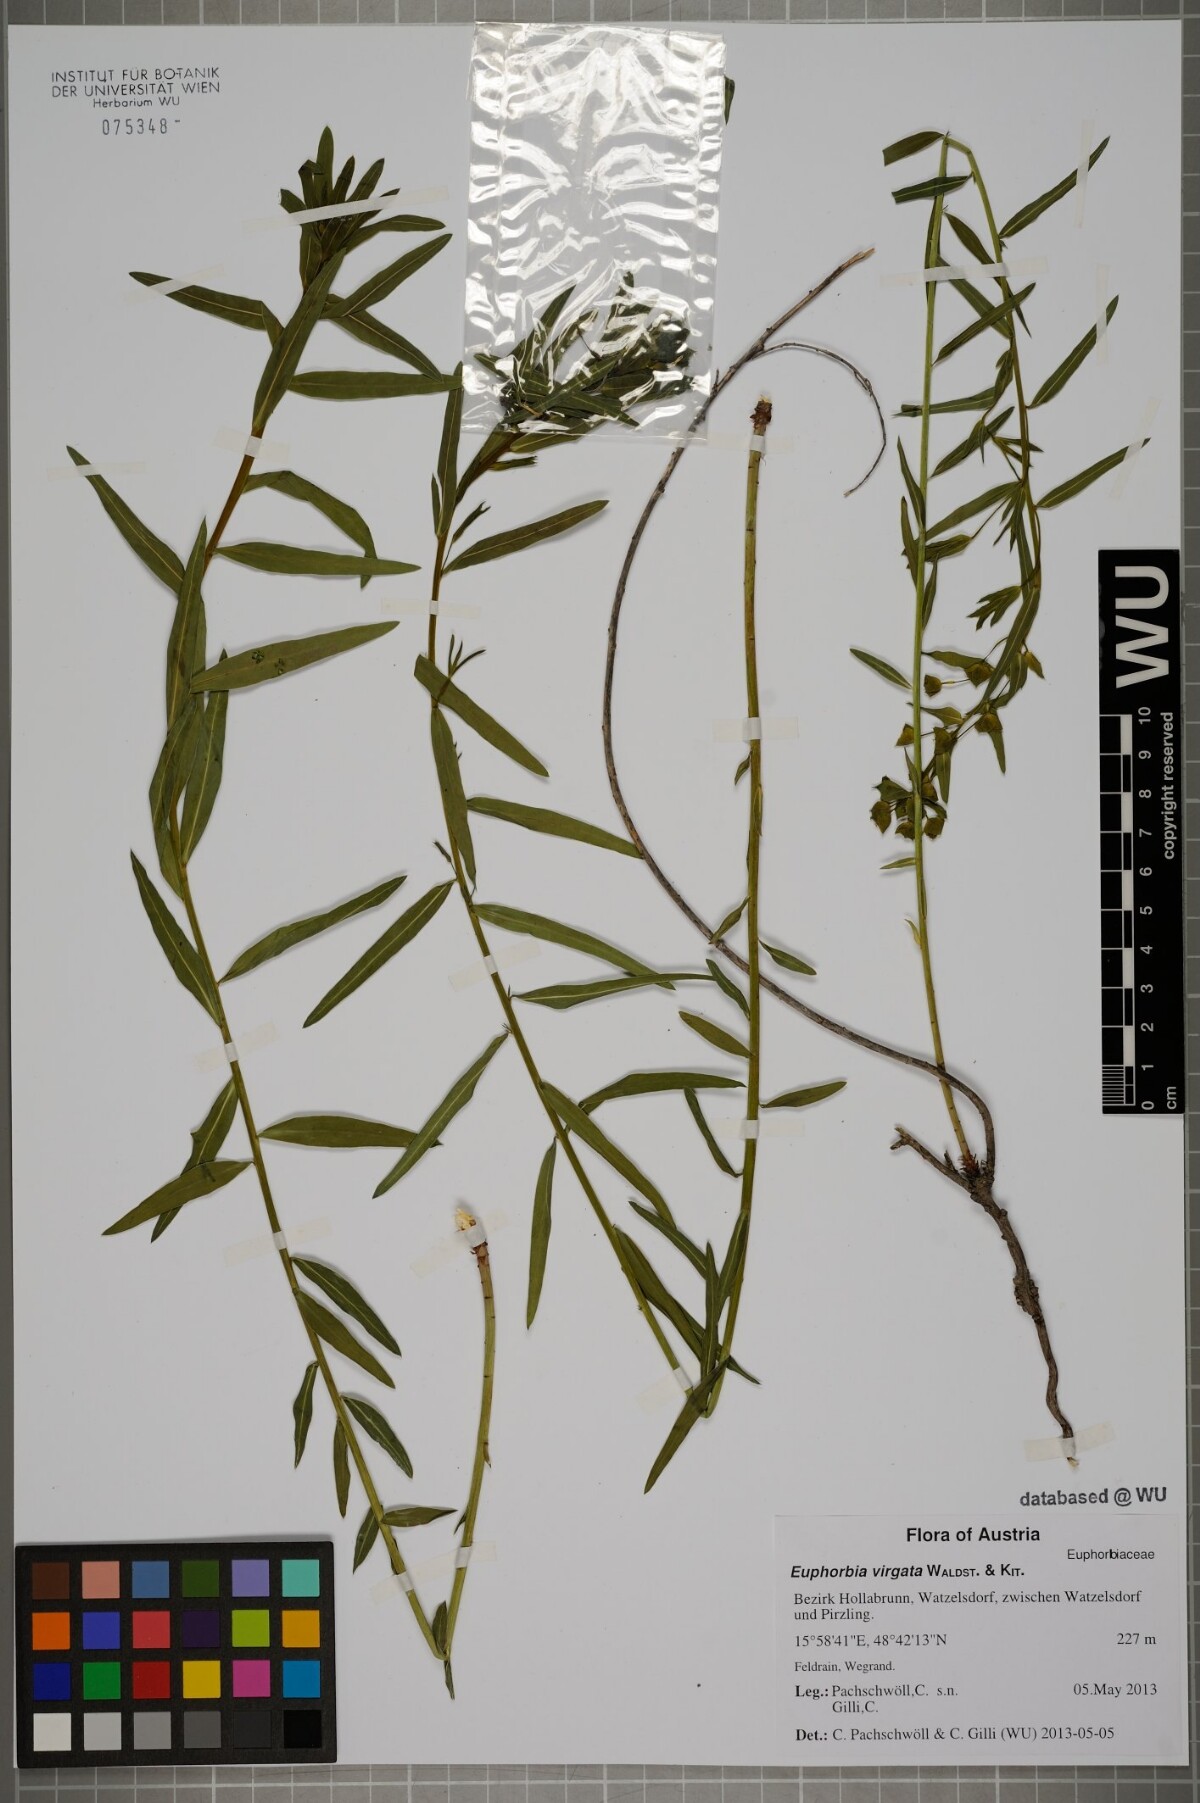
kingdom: Plantae
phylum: Tracheophyta
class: Magnoliopsida
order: Malpighiales
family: Euphorbiaceae
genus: Euphorbia
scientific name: Euphorbia virgata
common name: Leafy spurge
